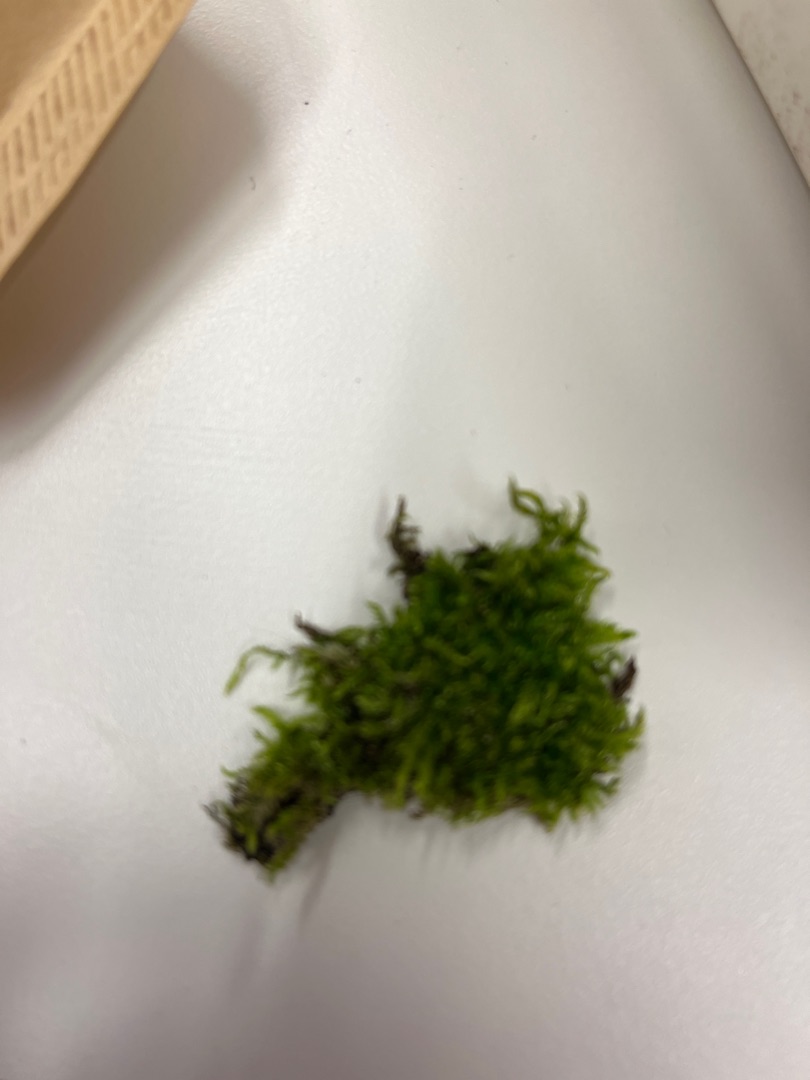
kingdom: Plantae
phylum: Bryophyta
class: Bryopsida
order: Hypnales
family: Hypnaceae
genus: Hypnum
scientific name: Hypnum
